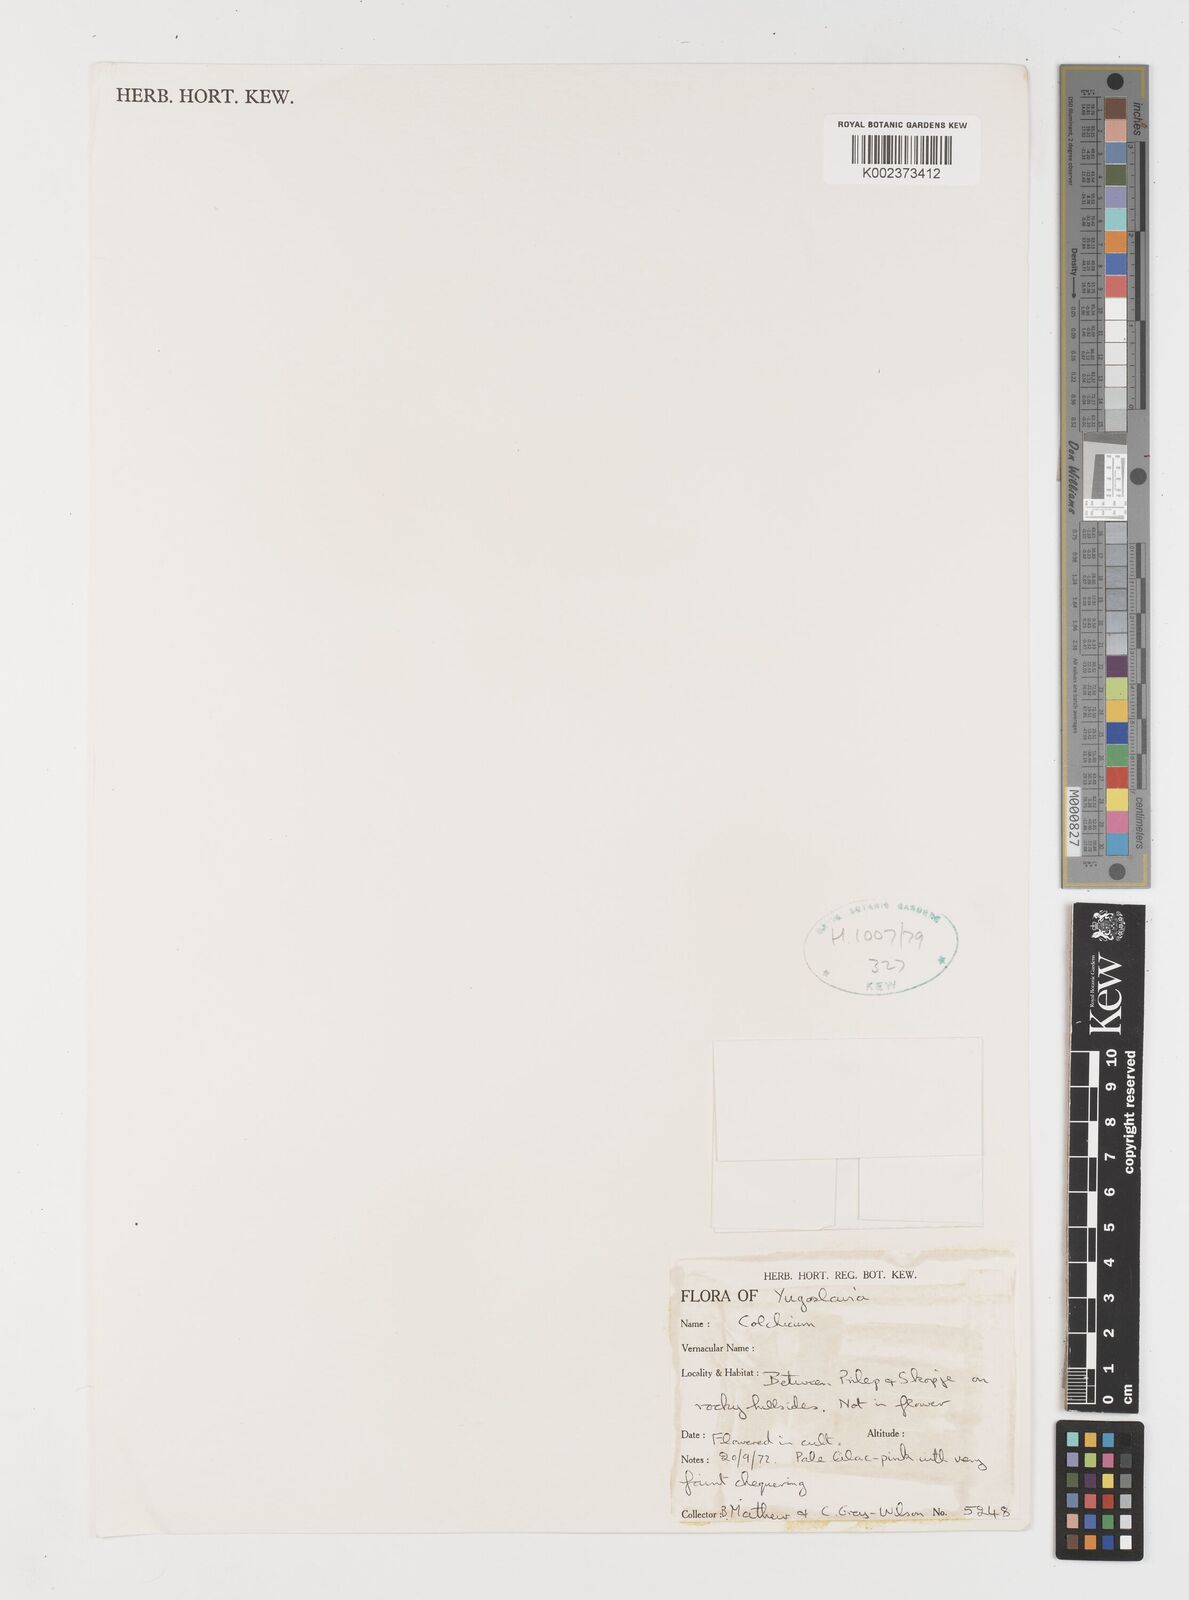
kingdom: Plantae
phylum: Tracheophyta
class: Liliopsida
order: Liliales
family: Colchicaceae
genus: Colchicum
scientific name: Colchicum
